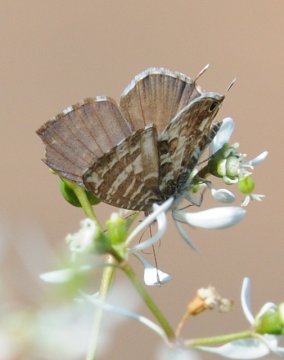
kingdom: Animalia
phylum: Arthropoda
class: Insecta
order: Lepidoptera
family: Lycaenidae
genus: Cacyreus
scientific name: Cacyreus lingeus
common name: Common Bush Blue
